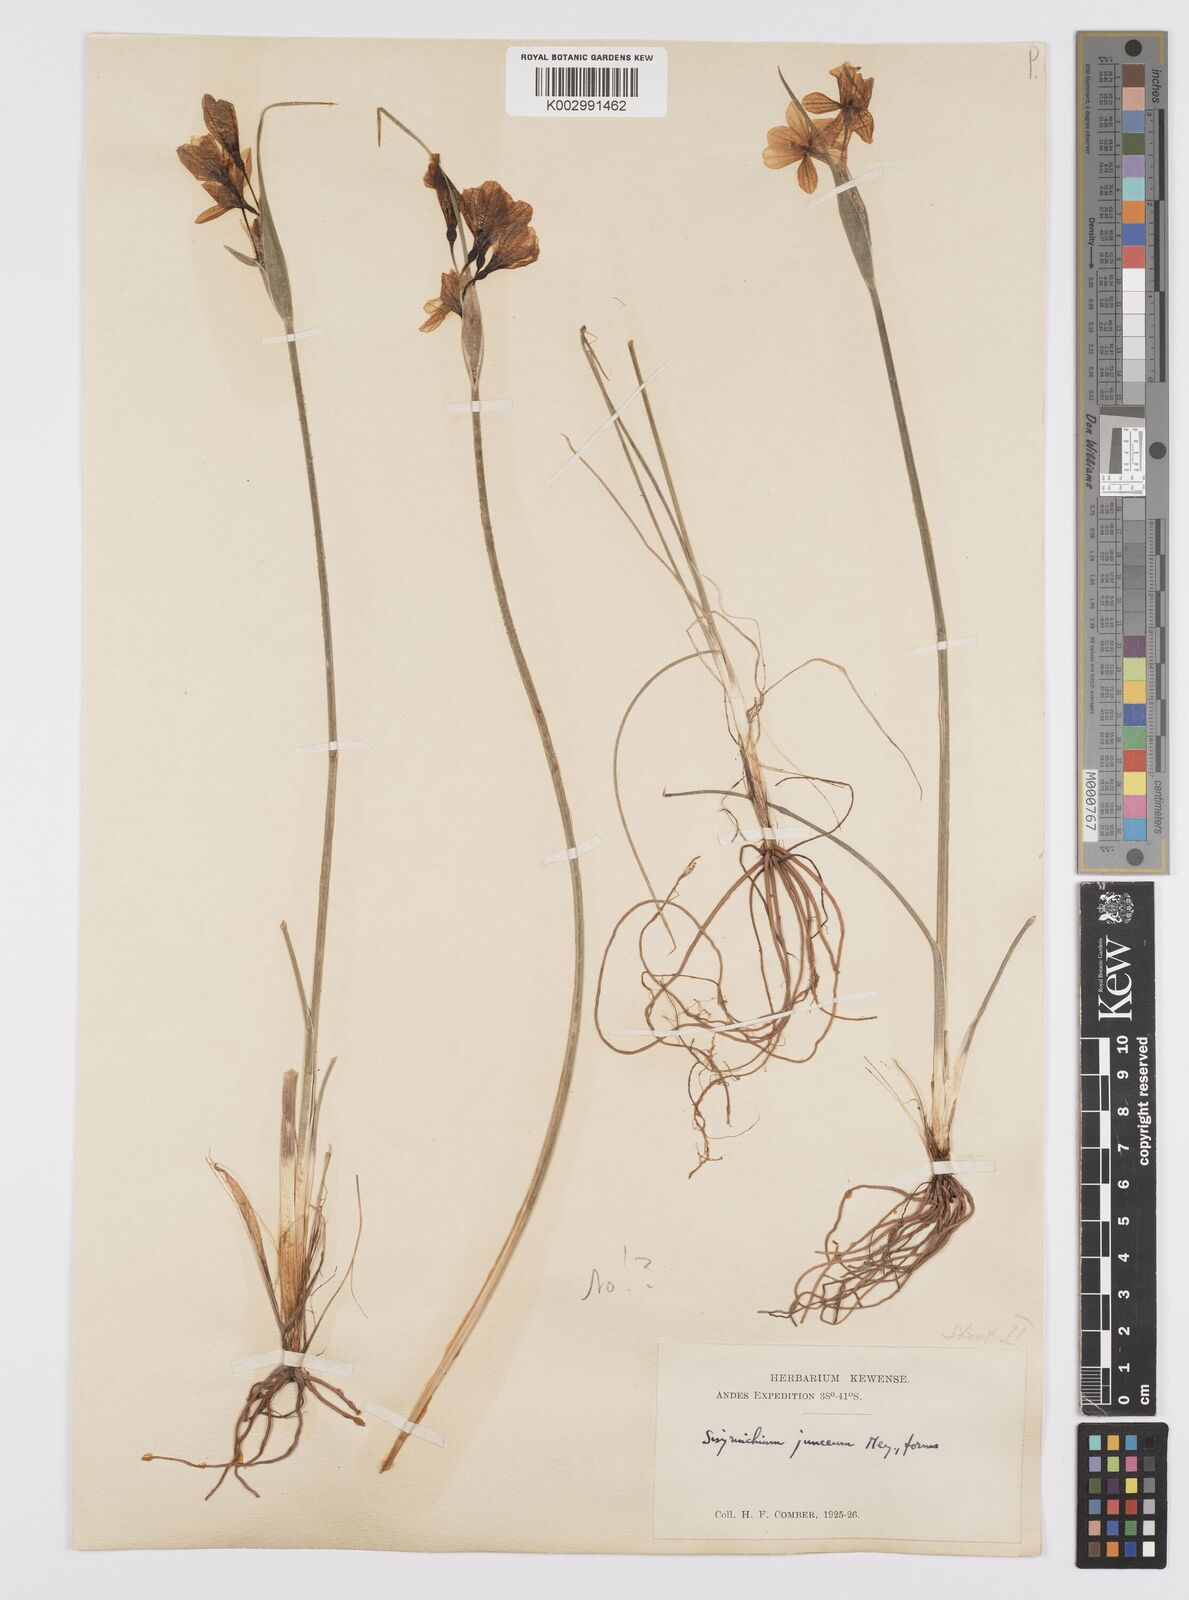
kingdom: Plantae
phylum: Tracheophyta
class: Liliopsida
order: Asparagales
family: Iridaceae
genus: Olsynium
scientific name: Olsynium junceum
